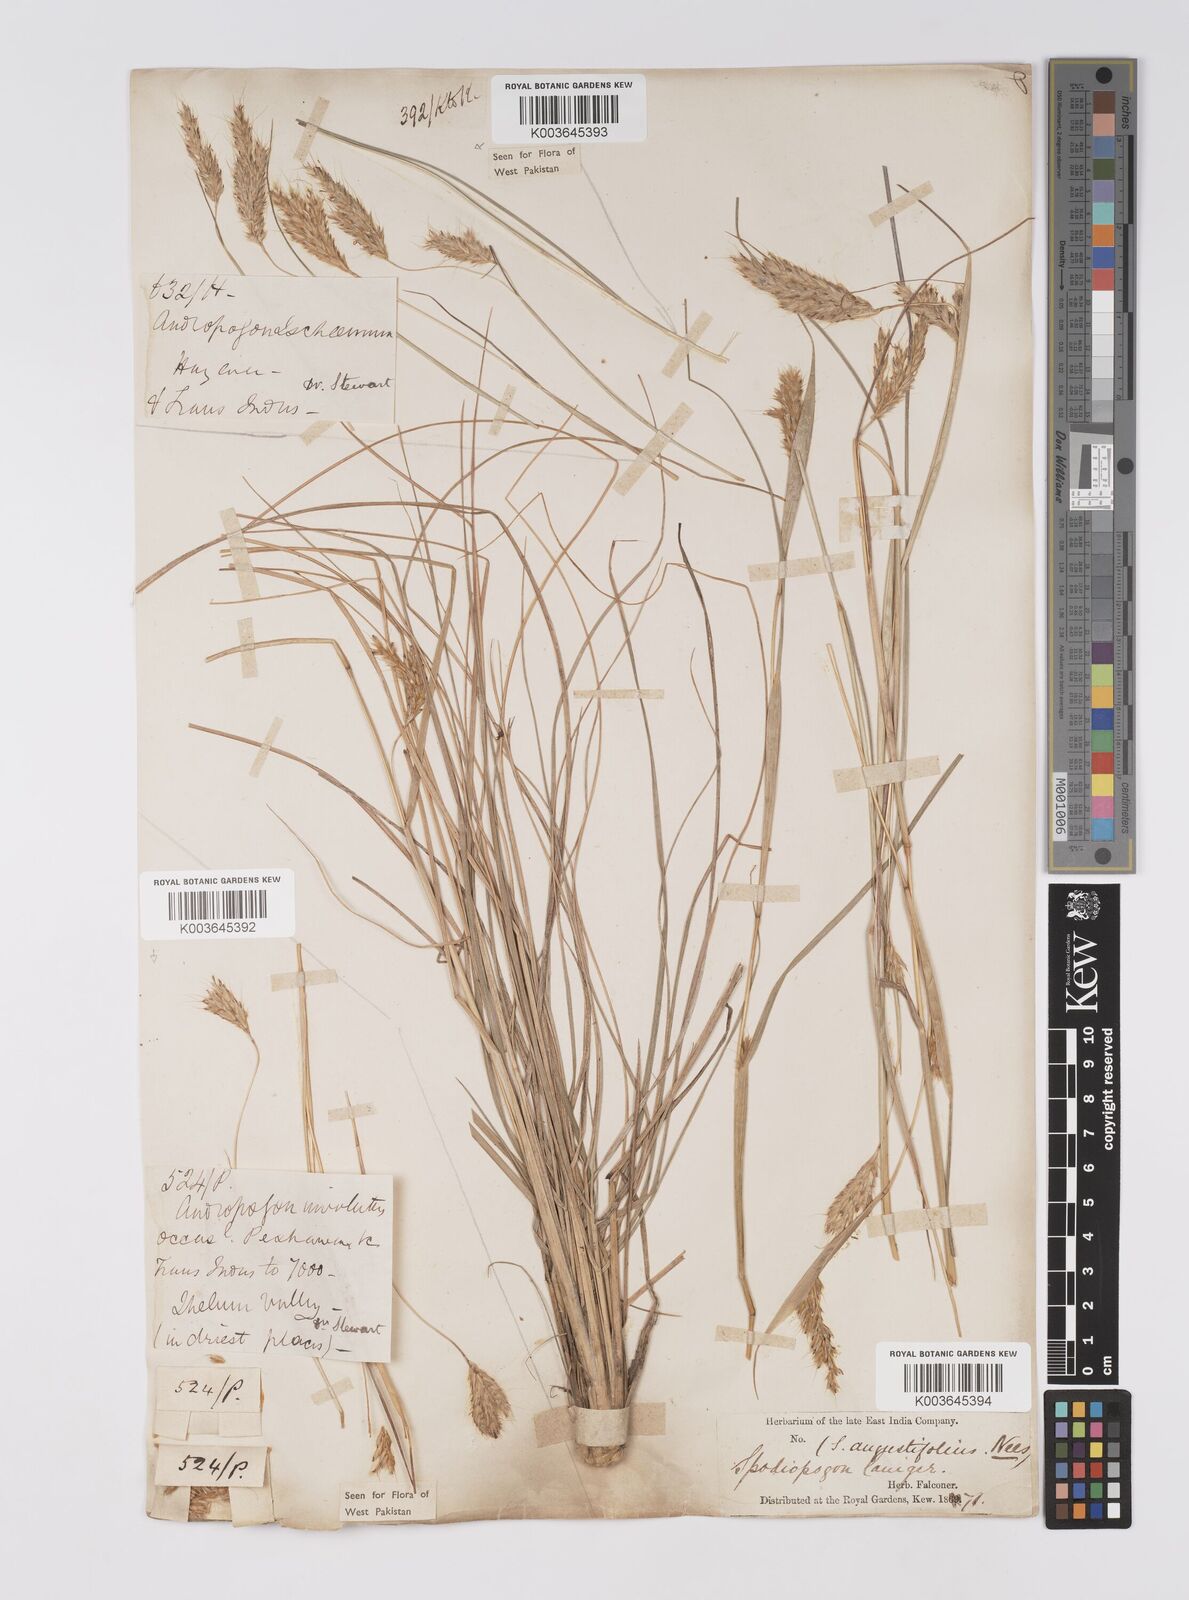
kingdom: Plantae
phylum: Tracheophyta
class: Liliopsida
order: Poales
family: Poaceae
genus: Eulaliopsis
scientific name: Eulaliopsis binata
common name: Baib grass
